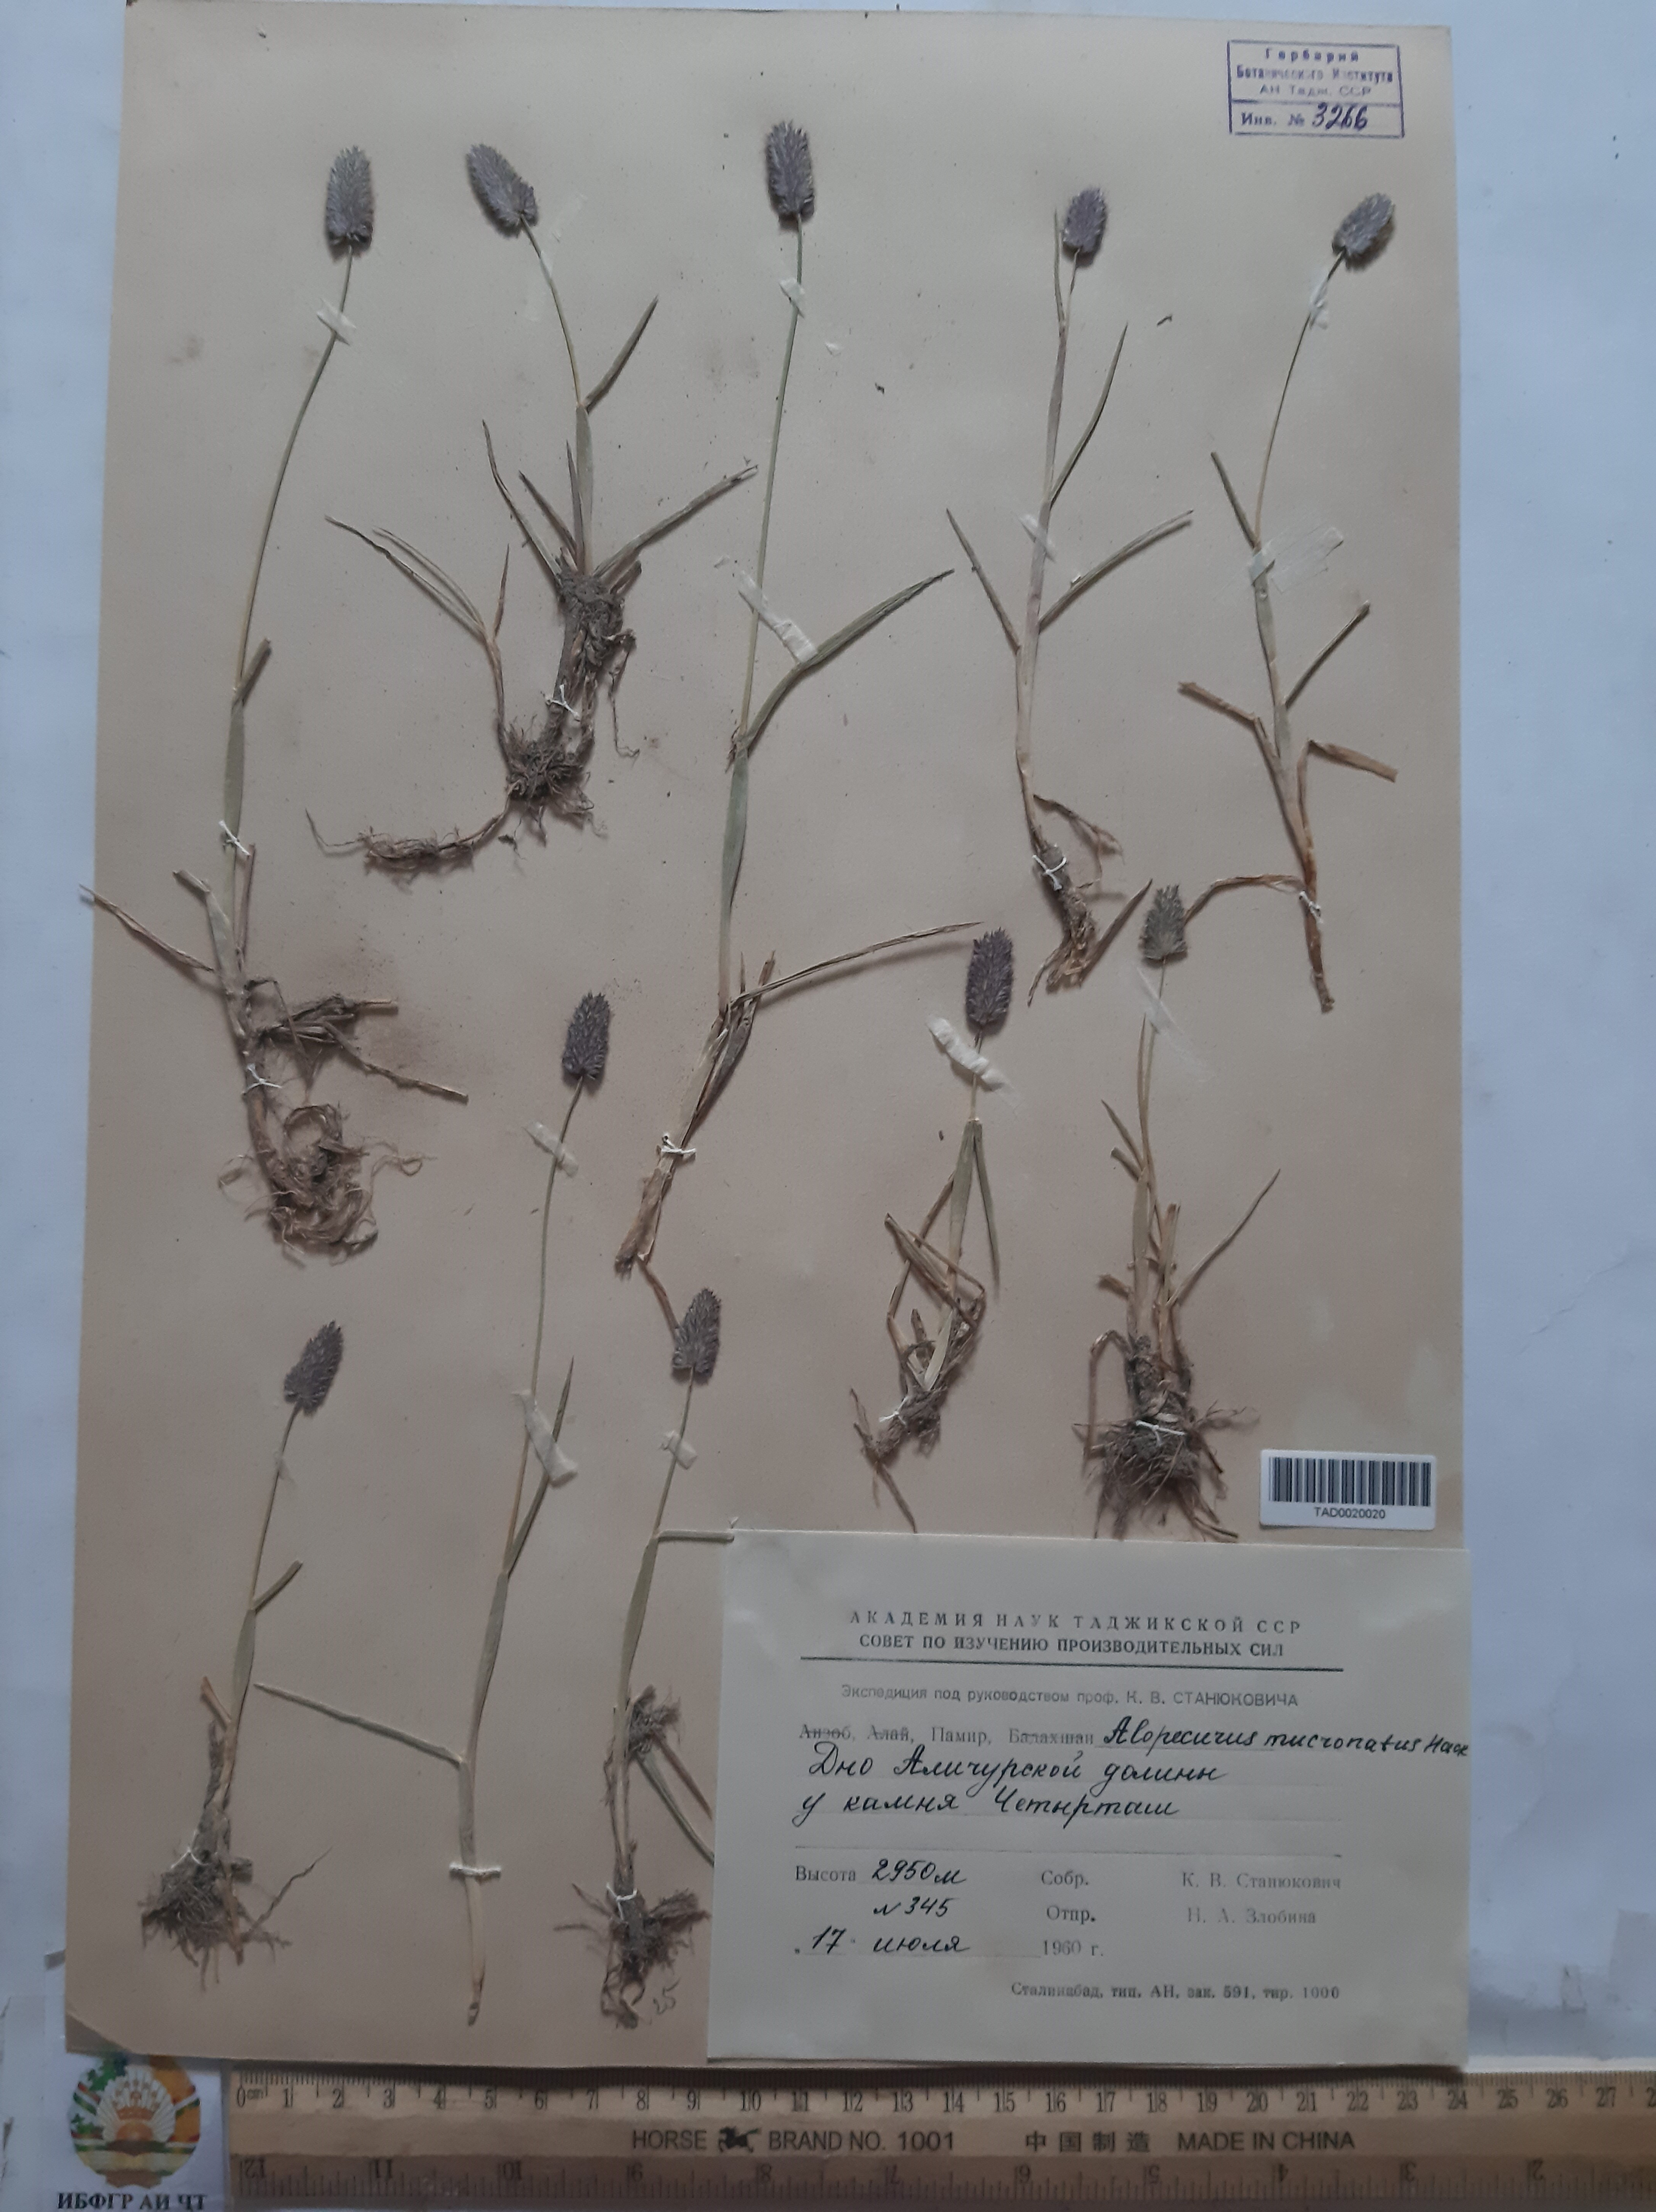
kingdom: Plantae
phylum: Tracheophyta
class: Liliopsida
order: Poales
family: Poaceae
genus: Alopecurus
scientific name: Alopecurus mucronatus
